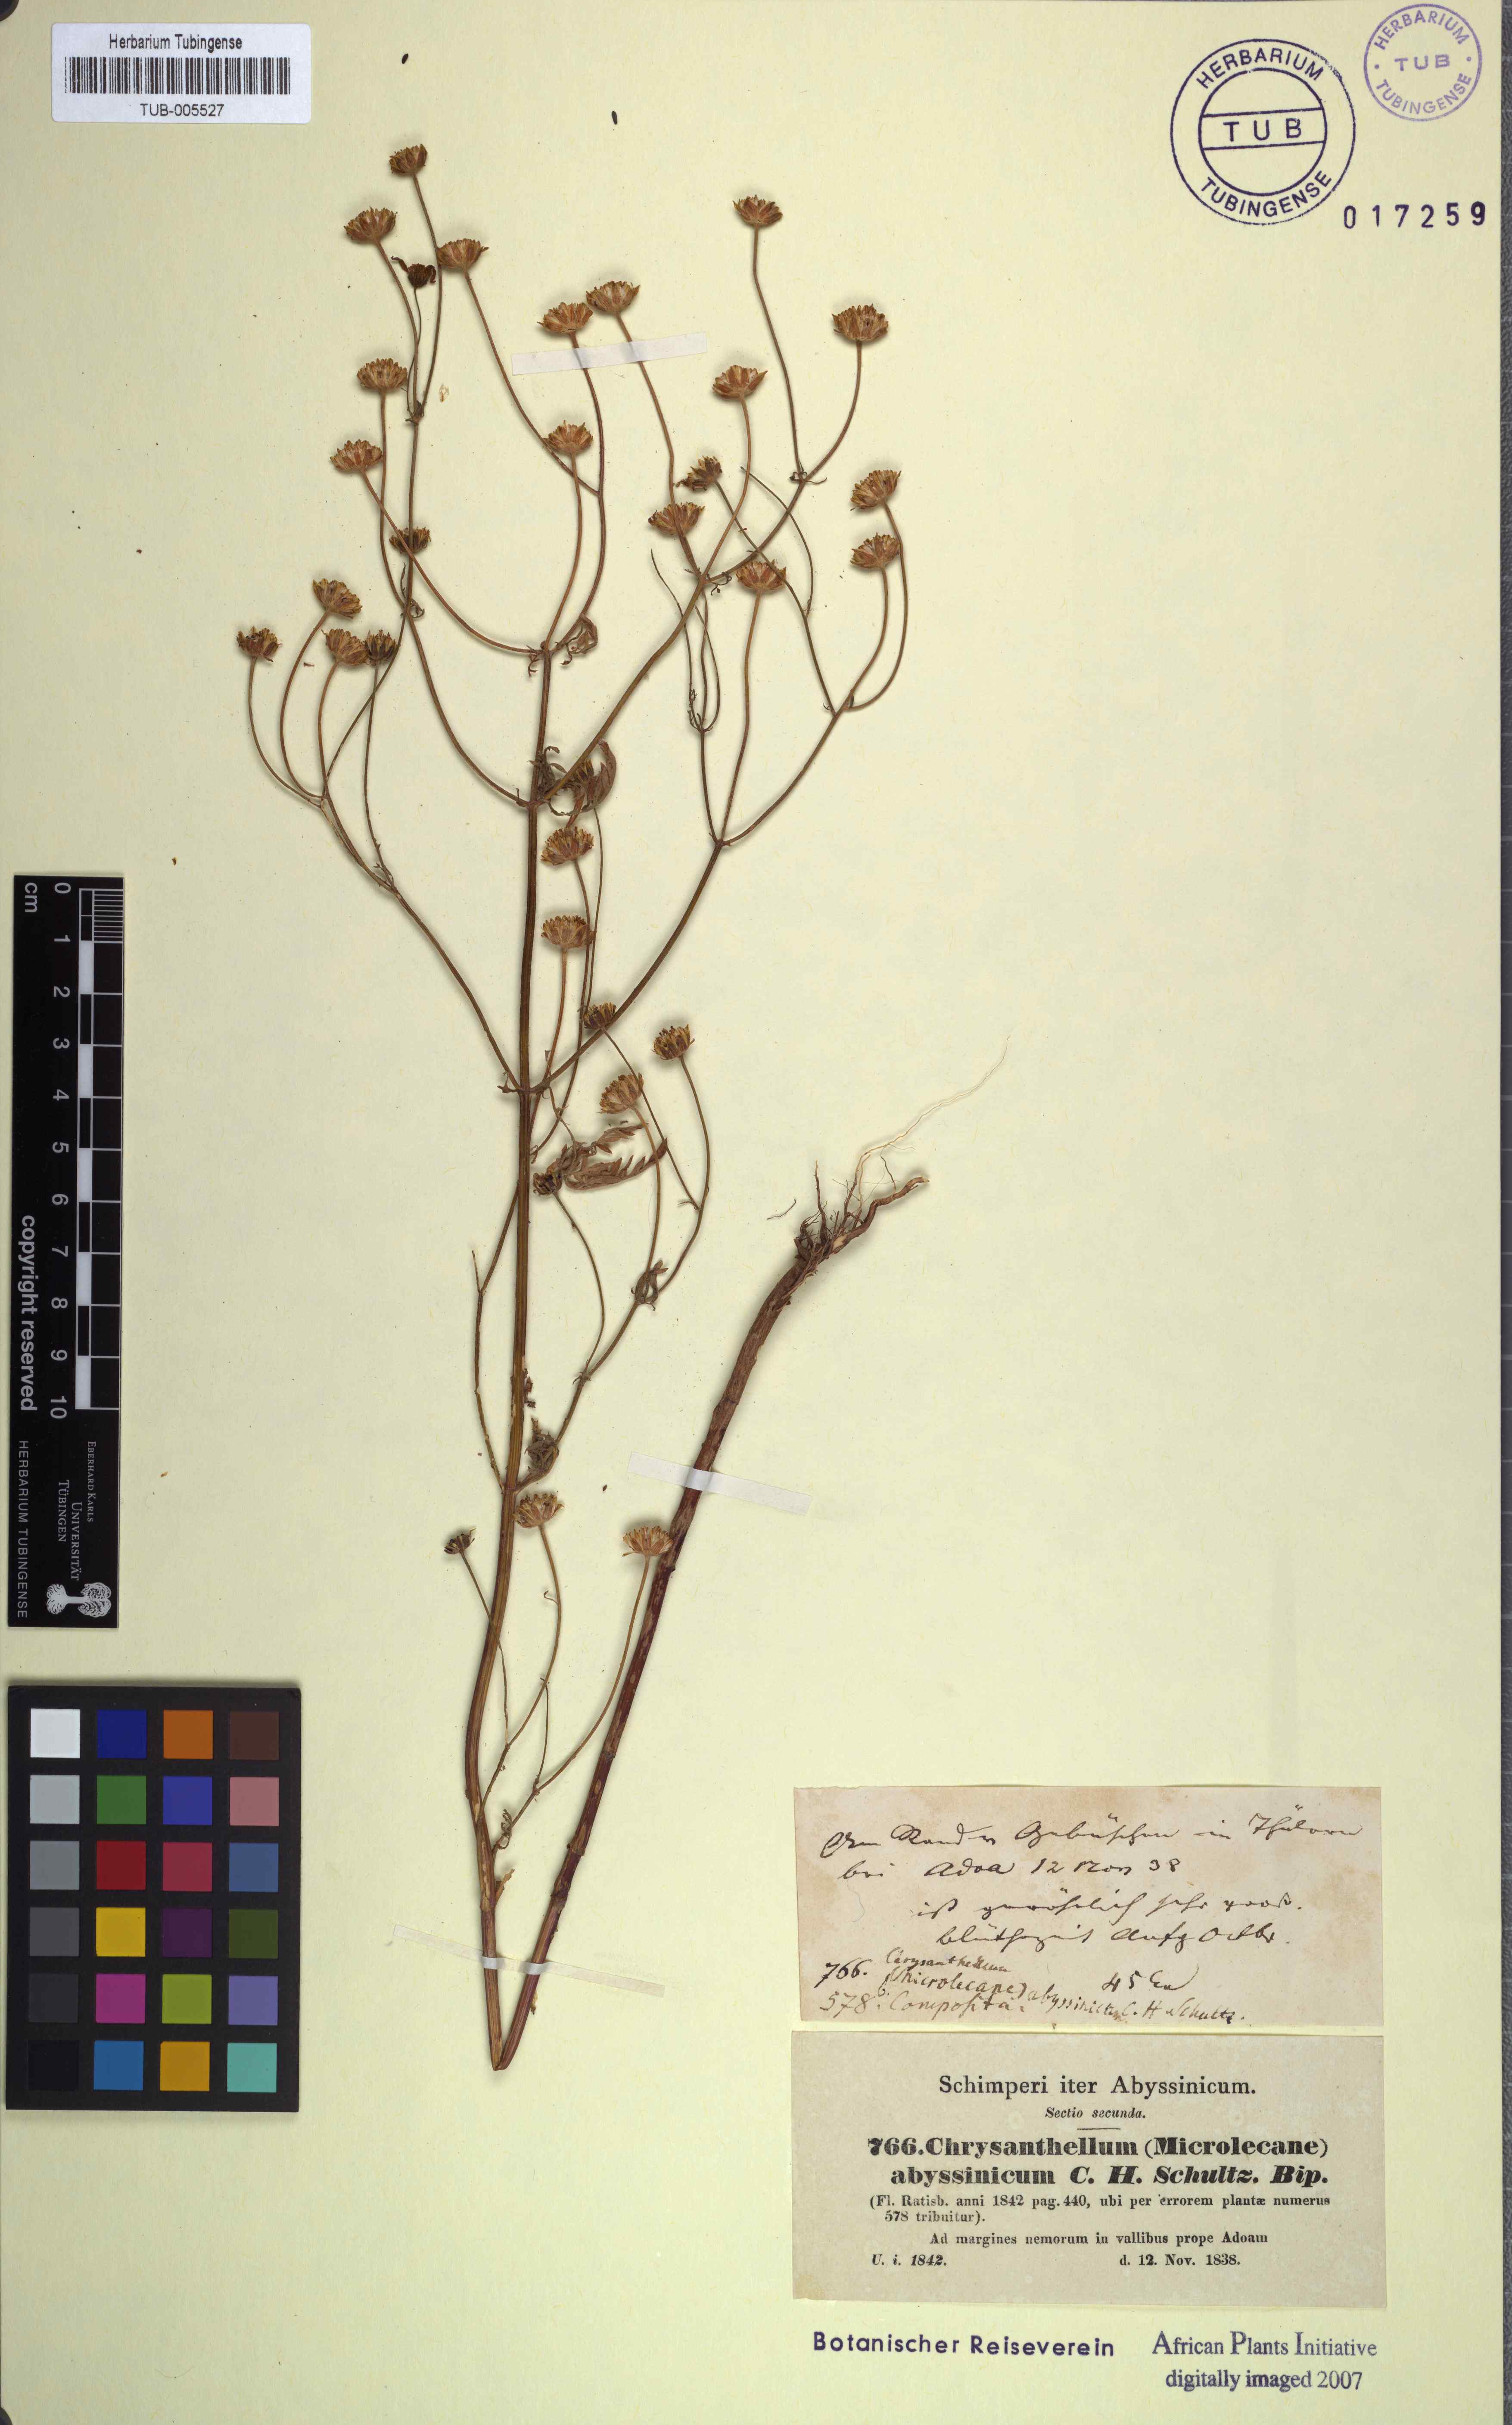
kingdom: Plantae
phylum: Tracheophyta
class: Magnoliopsida
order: Asterales
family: Asteraceae
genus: Bidens
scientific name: Bidens setigera
